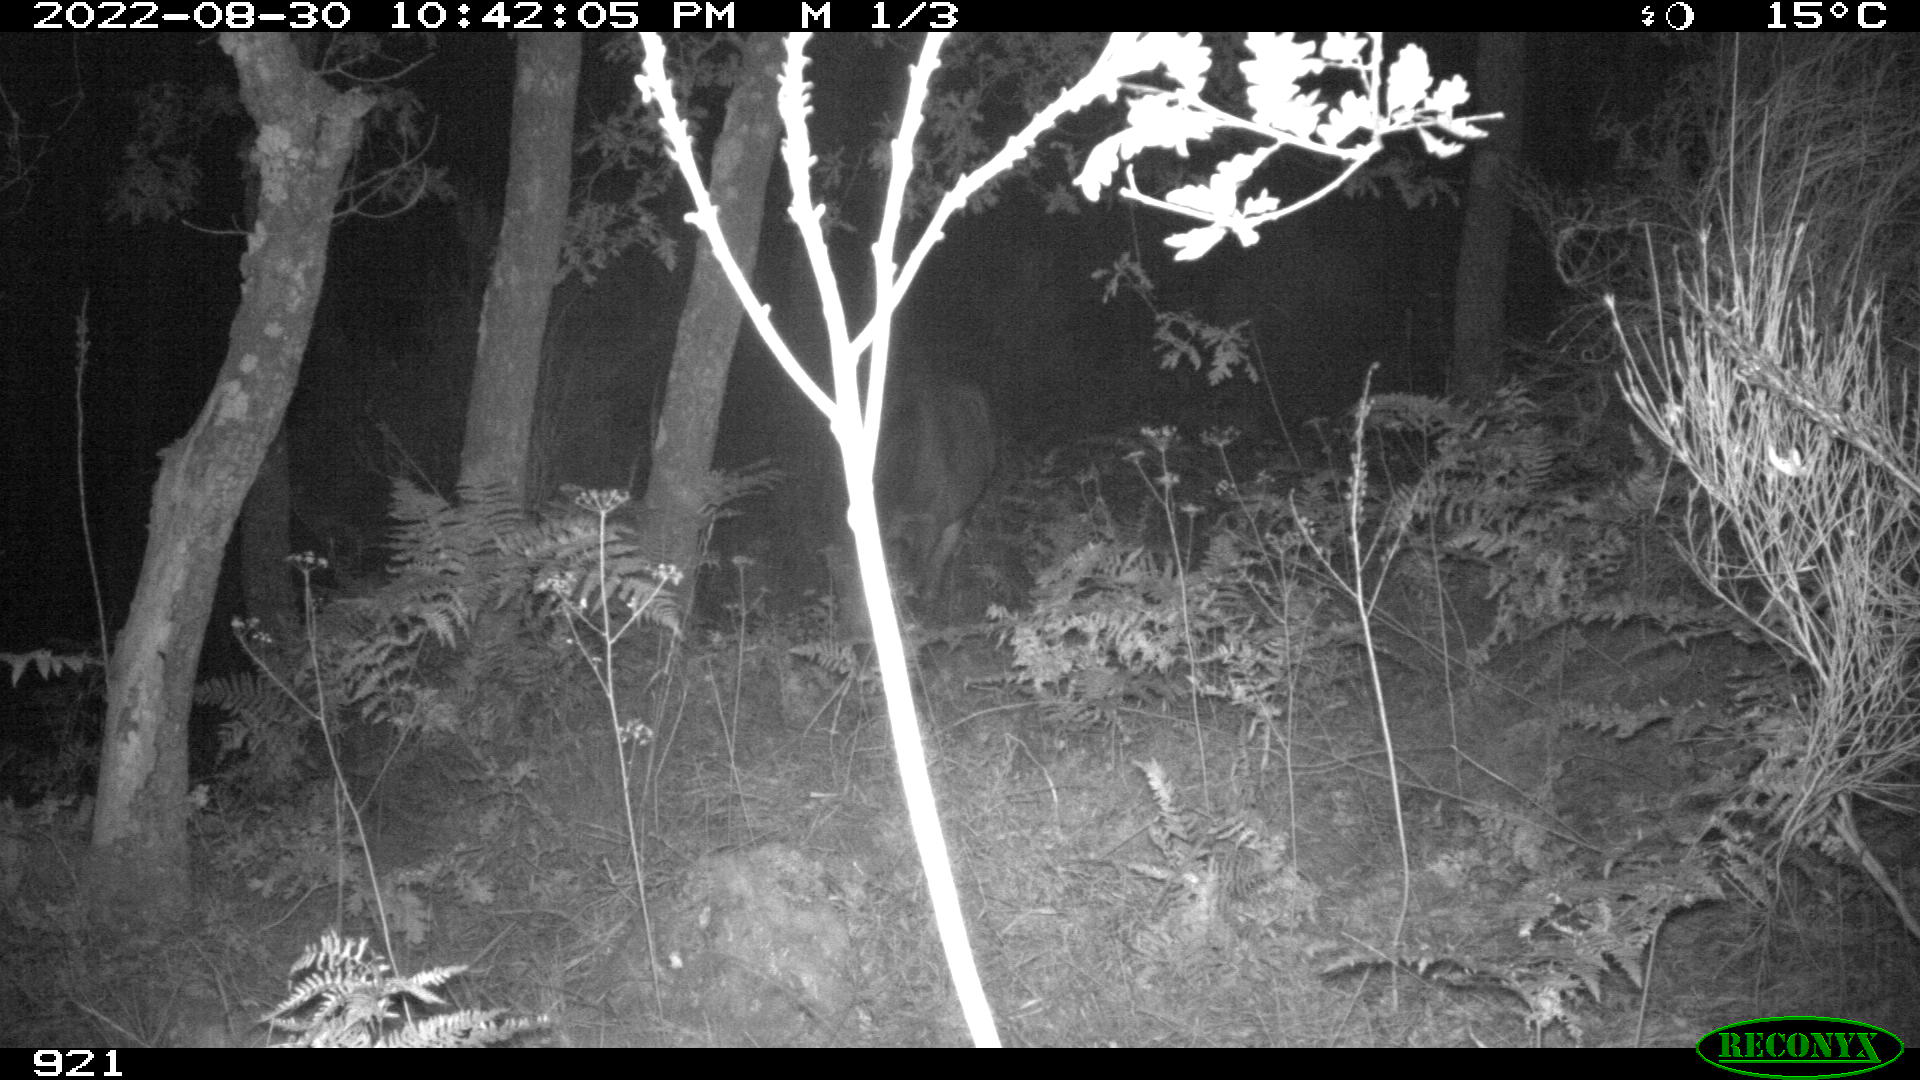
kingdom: Animalia
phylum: Chordata
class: Mammalia
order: Perissodactyla
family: Equidae
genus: Equus
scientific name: Equus caballus
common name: Horse
